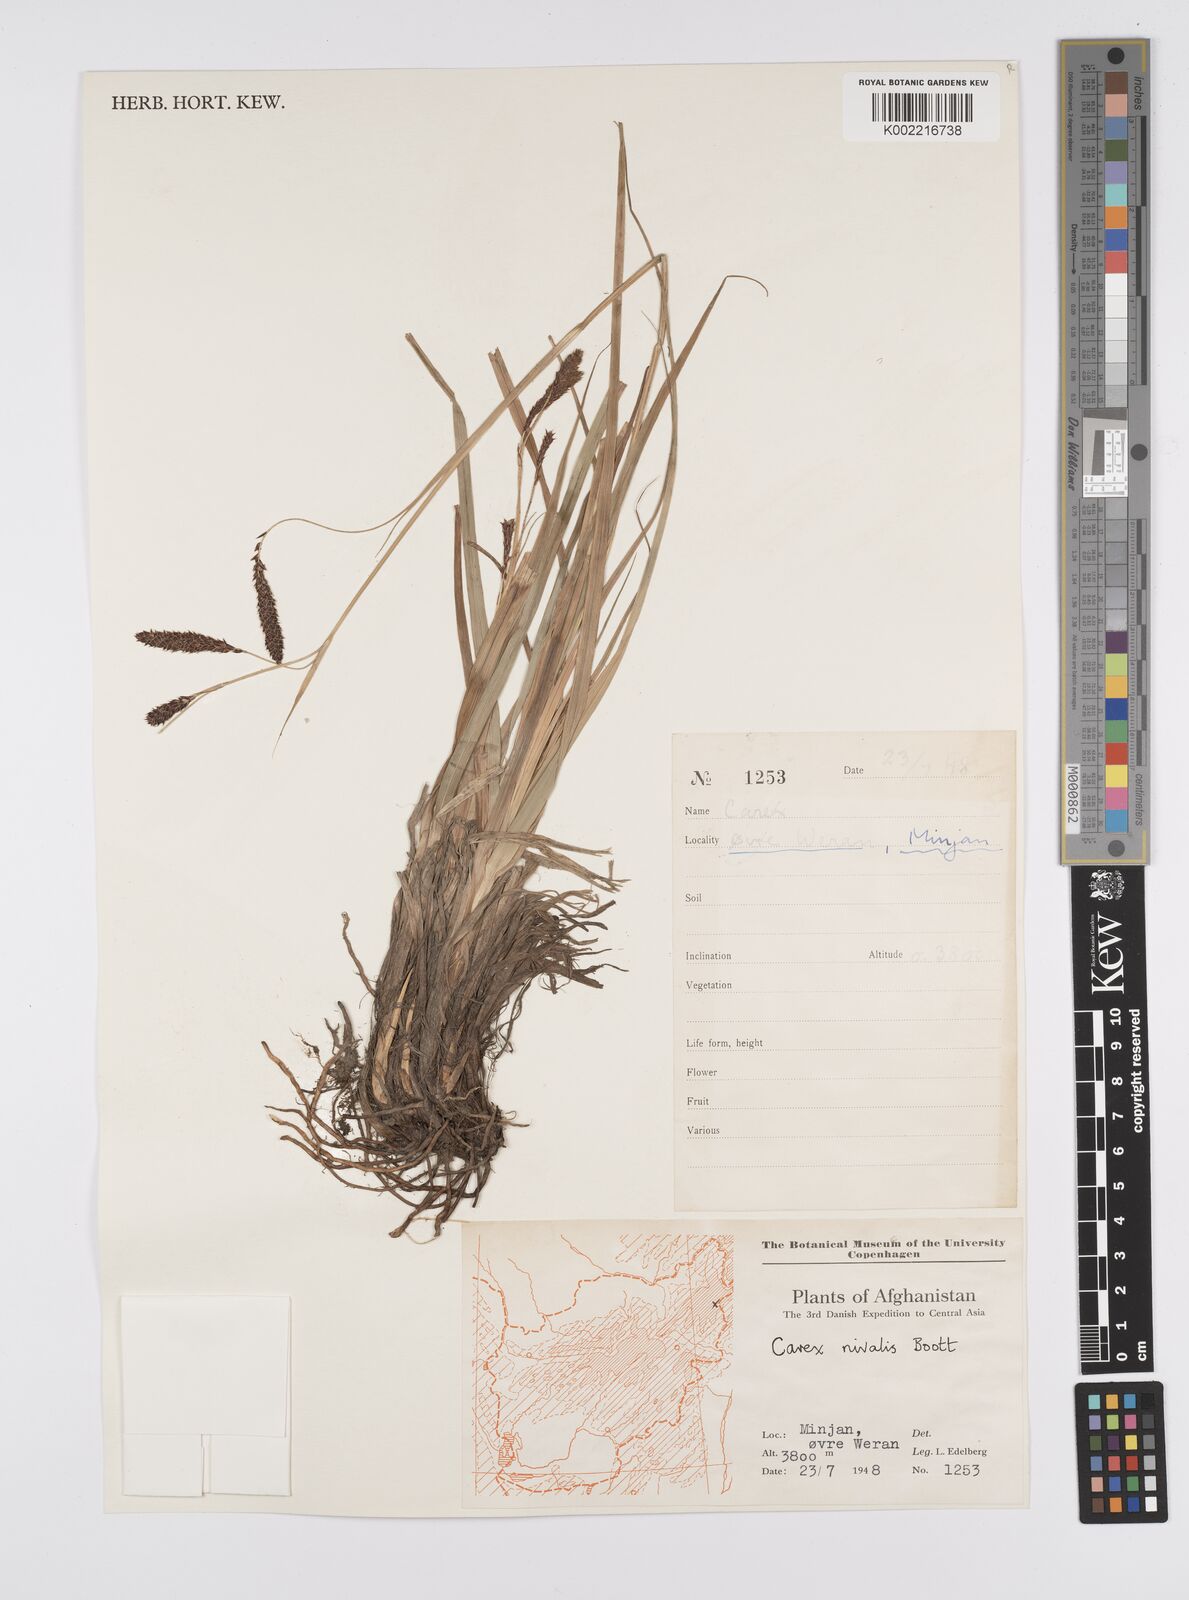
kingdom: Plantae
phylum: Tracheophyta
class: Liliopsida
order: Poales
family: Cyperaceae
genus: Carex
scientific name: Carex nivalis
